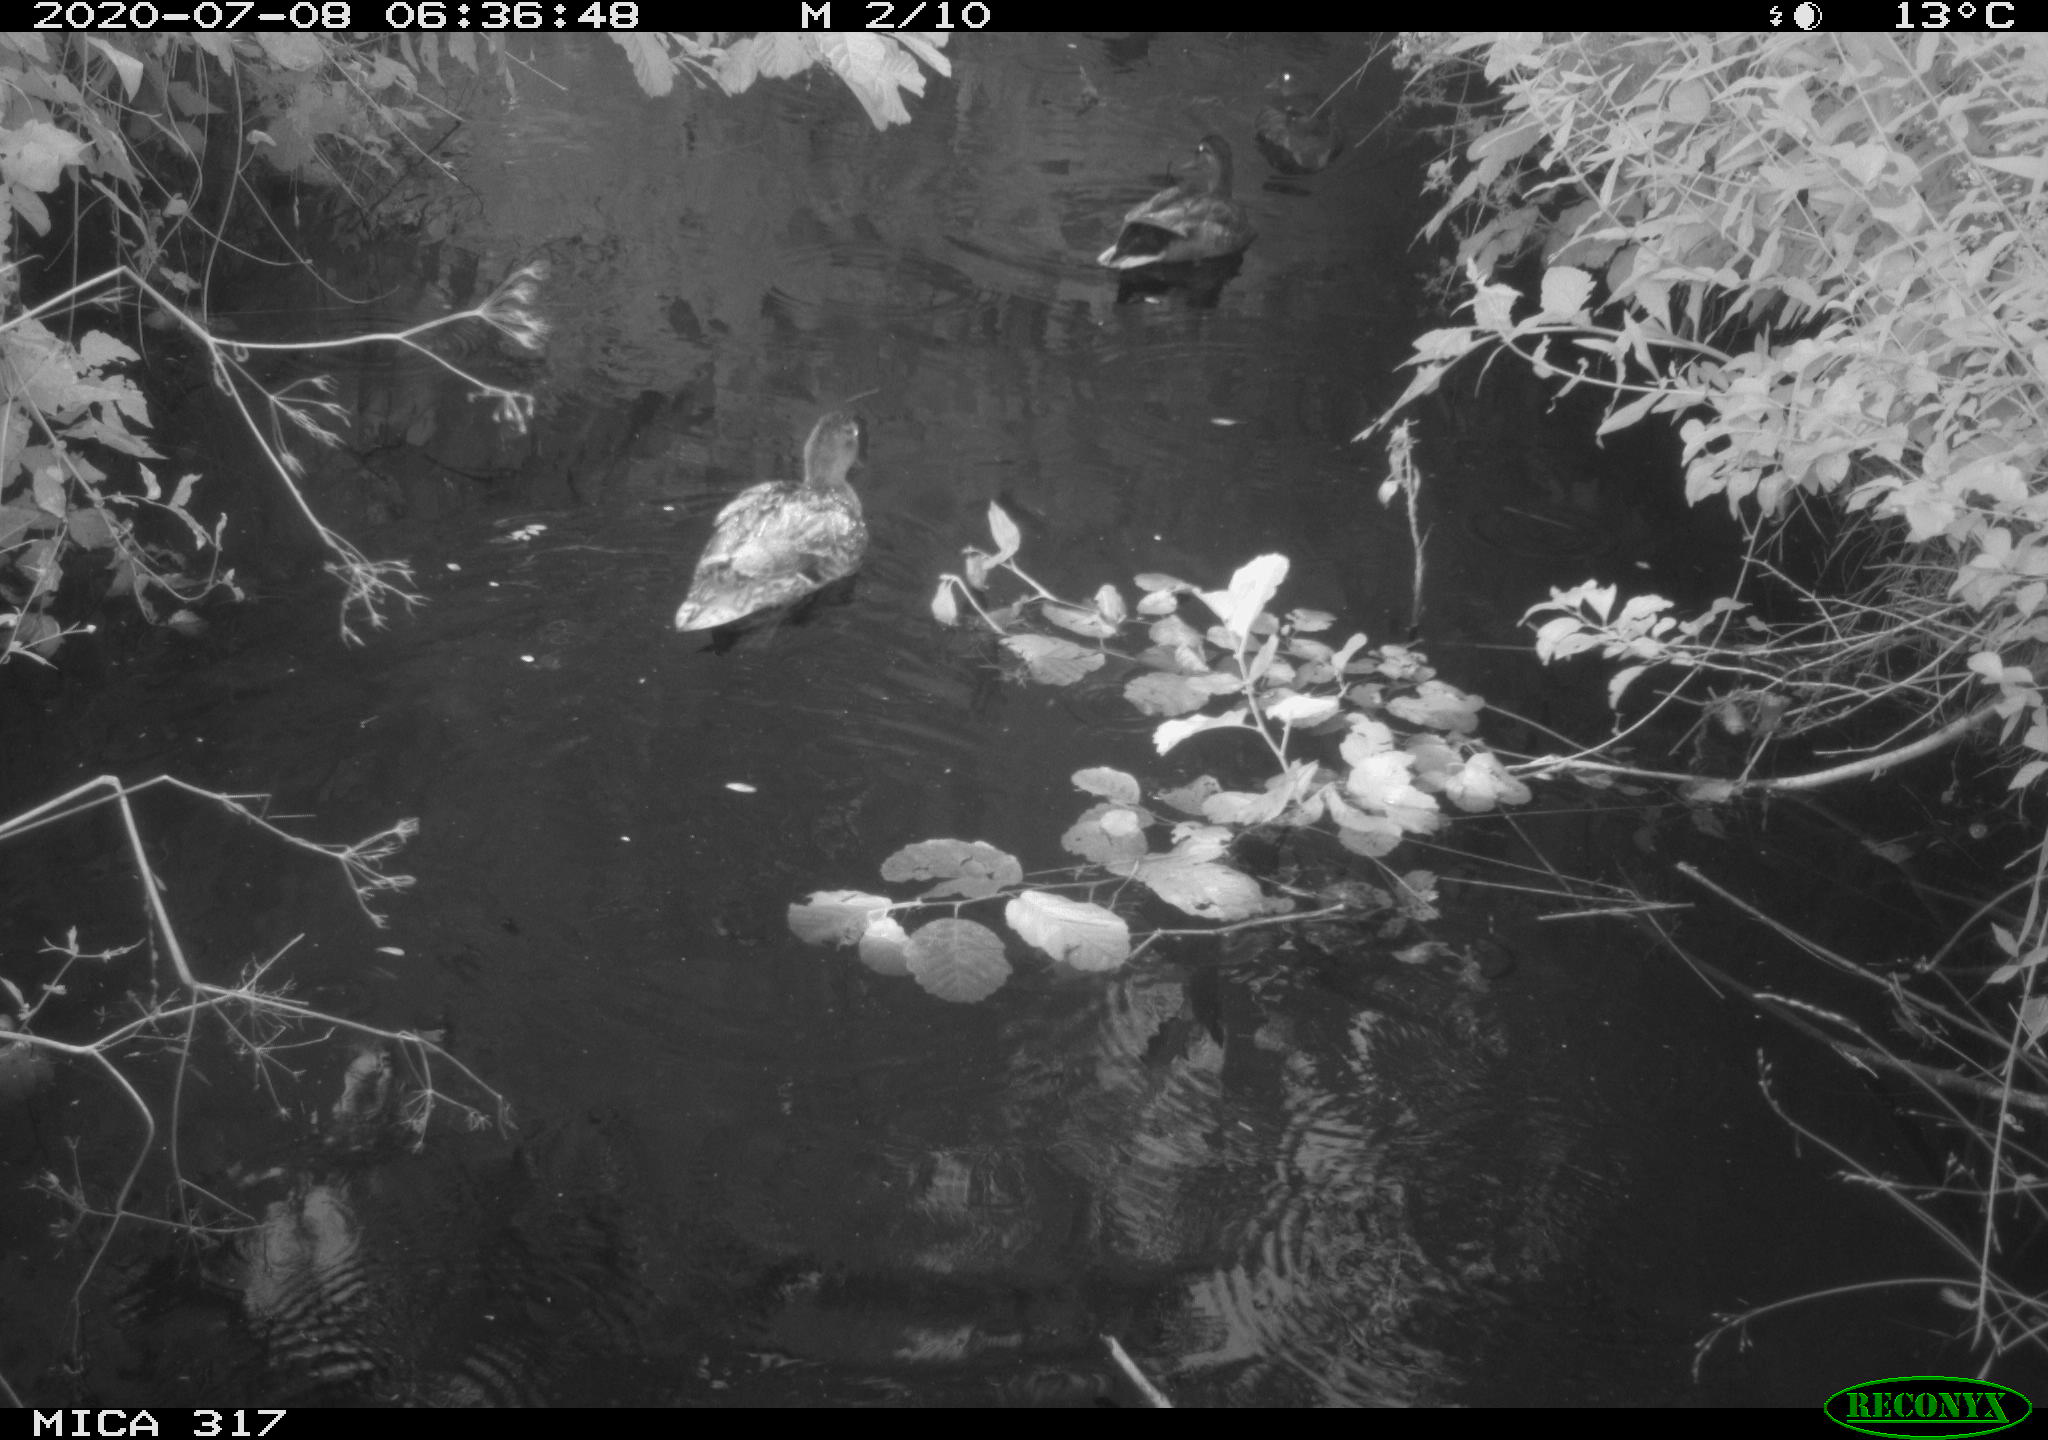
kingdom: Animalia
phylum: Chordata
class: Aves
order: Anseriformes
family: Anatidae
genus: Anas
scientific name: Anas platyrhynchos
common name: Mallard
